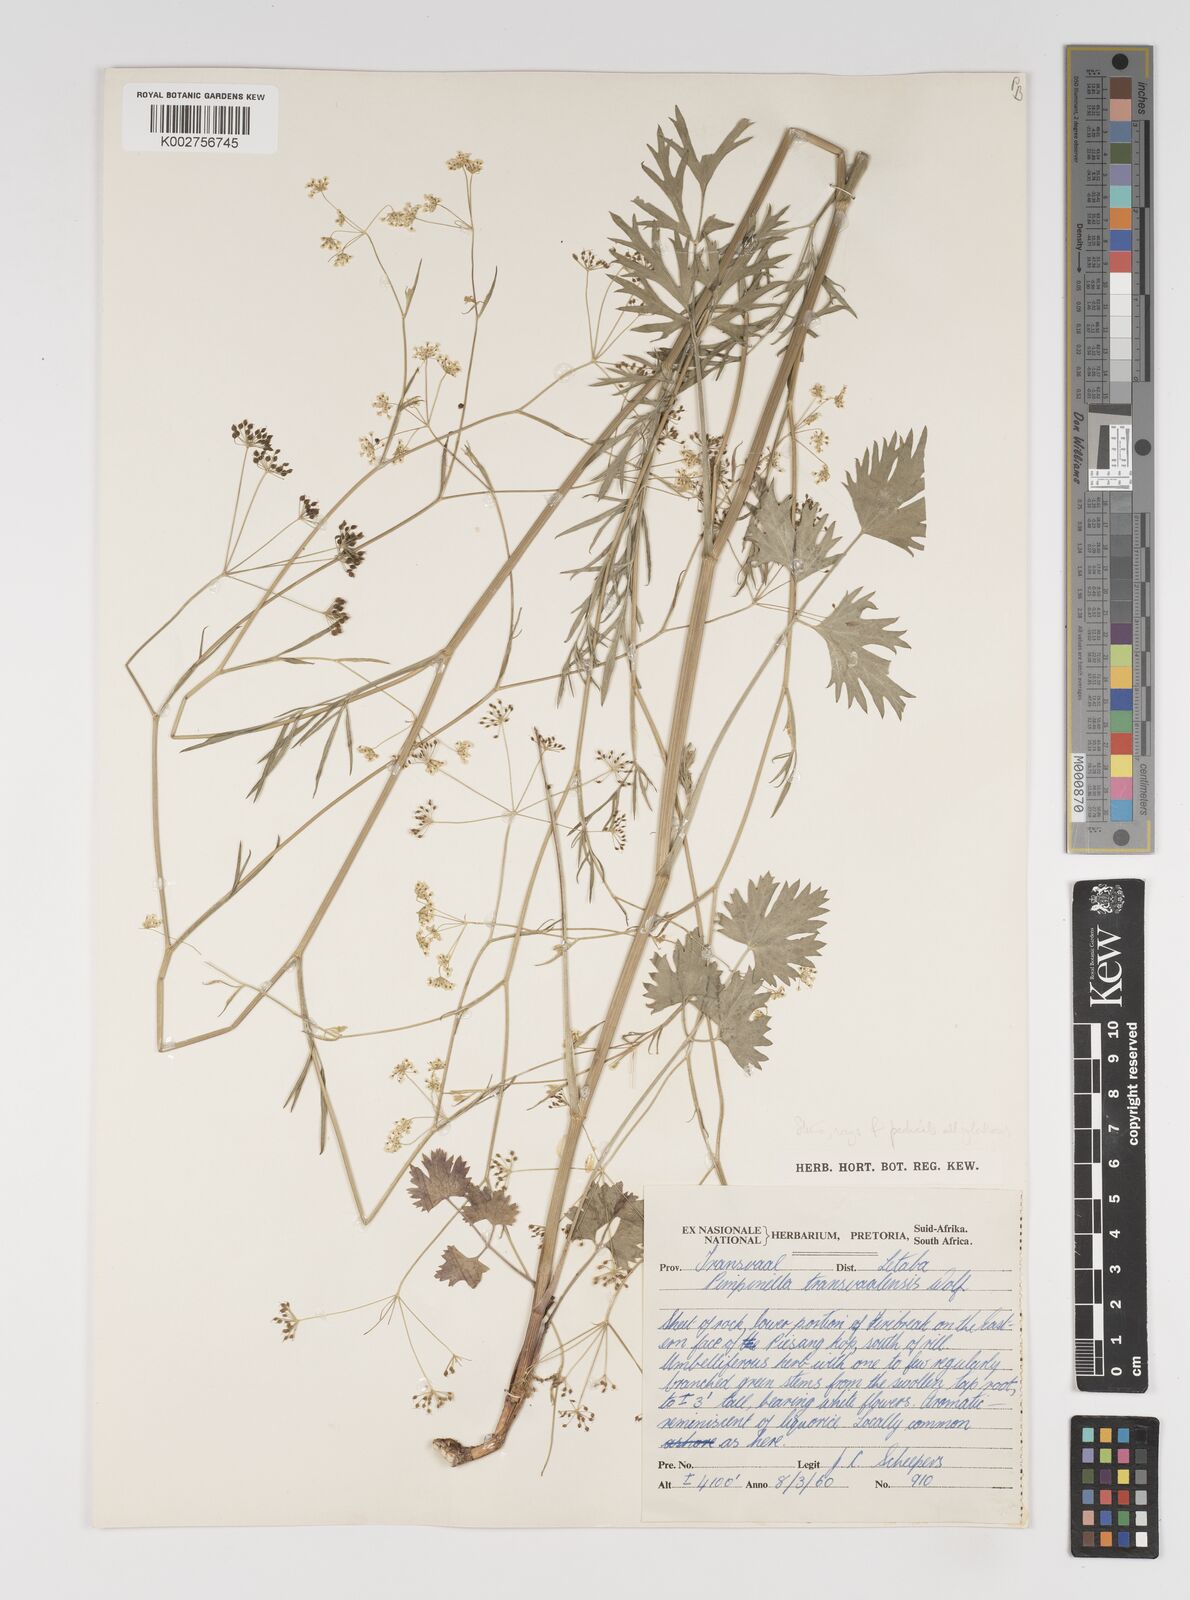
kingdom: Plantae
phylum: Tracheophyta
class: Magnoliopsida
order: Apiales
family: Apiaceae
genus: Pimpinella
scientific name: Pimpinella transvaalensis
